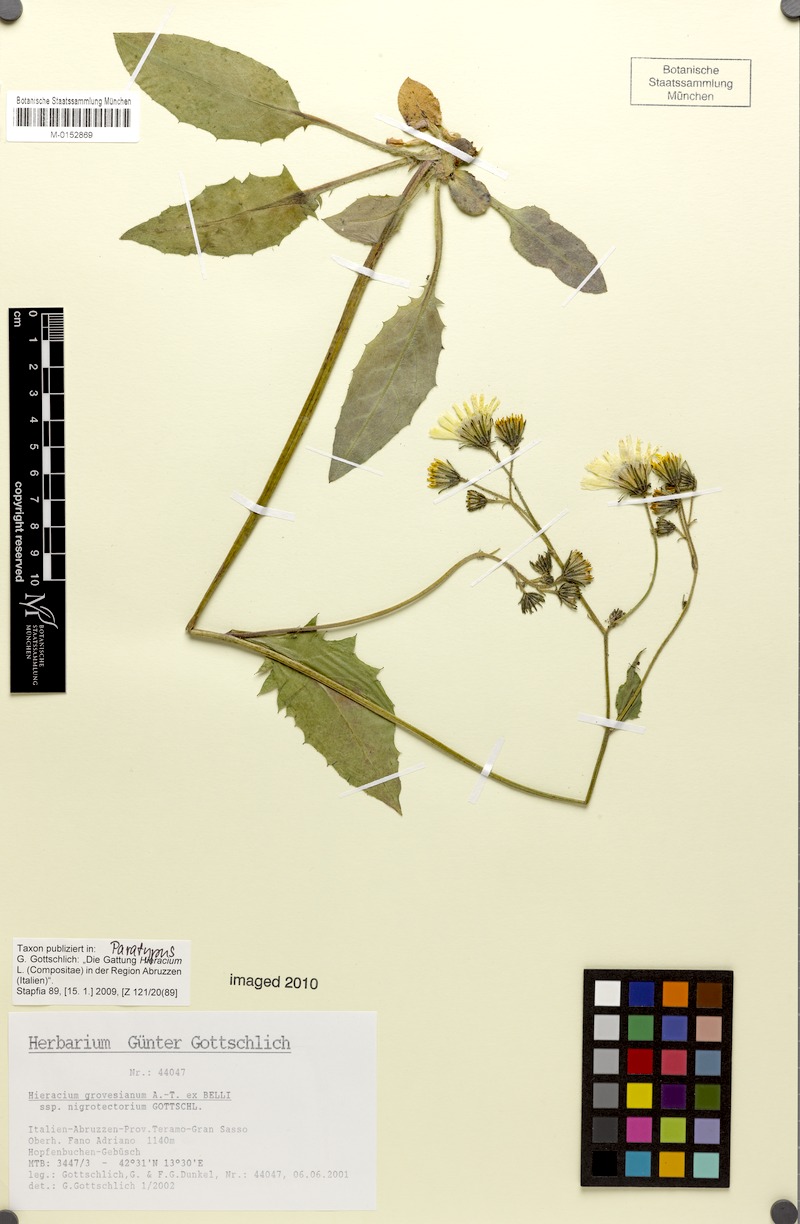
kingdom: Plantae
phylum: Tracheophyta
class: Magnoliopsida
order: Asterales
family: Asteraceae
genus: Hieracium
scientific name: Hieracium grovesianum
